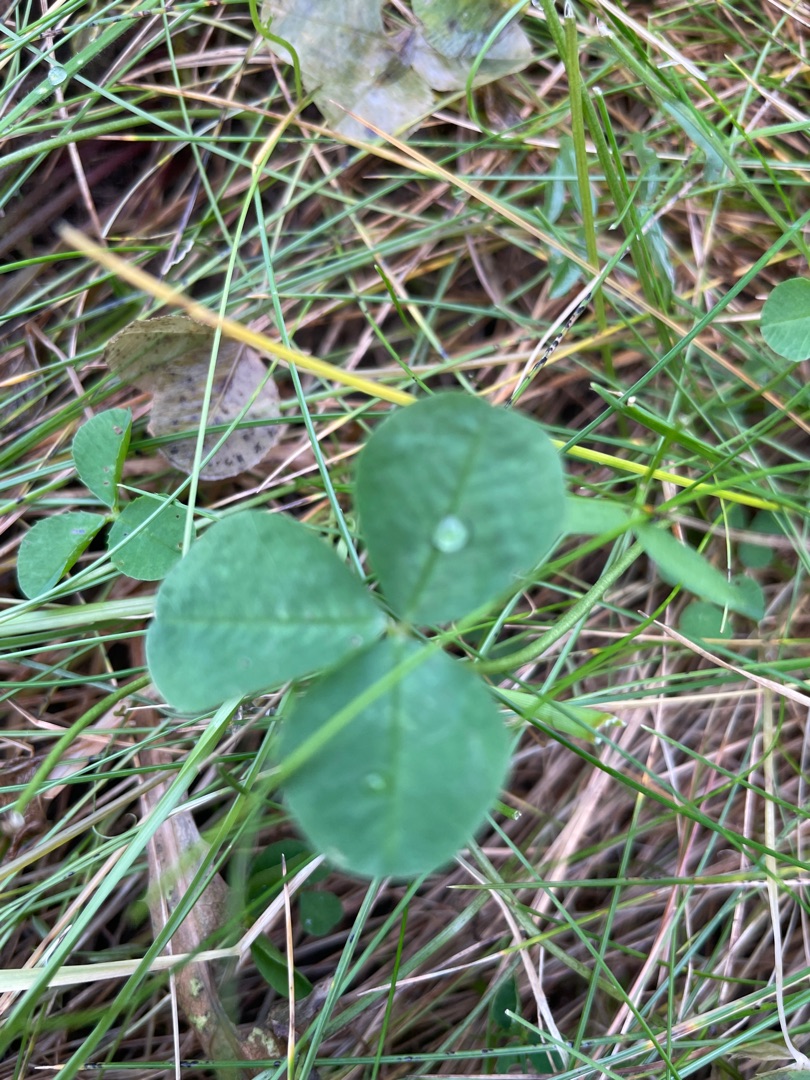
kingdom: Plantae
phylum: Tracheophyta
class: Magnoliopsida
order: Fabales
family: Fabaceae
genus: Trifolium
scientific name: Trifolium repens
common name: Hvid-kløver
